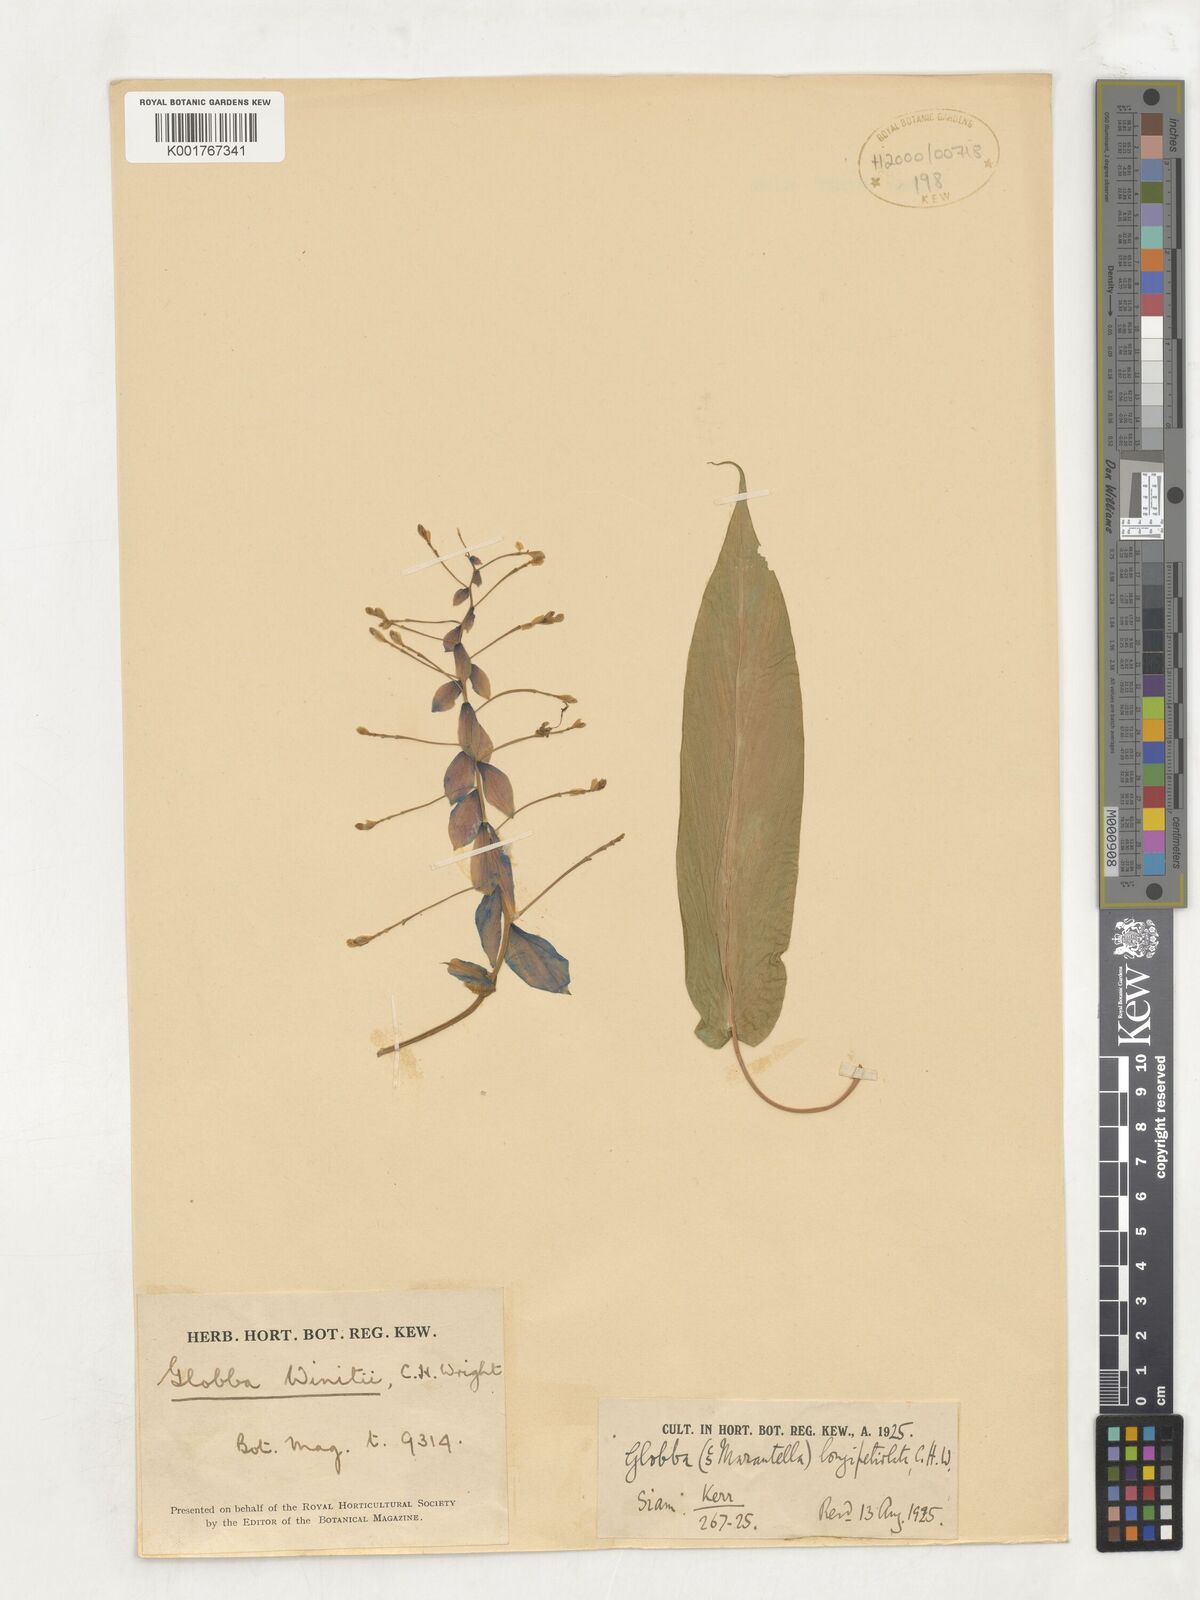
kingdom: Plantae
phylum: Tracheophyta
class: Liliopsida
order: Zingiberales
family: Zingiberaceae
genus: Globba
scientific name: Globba winitii
